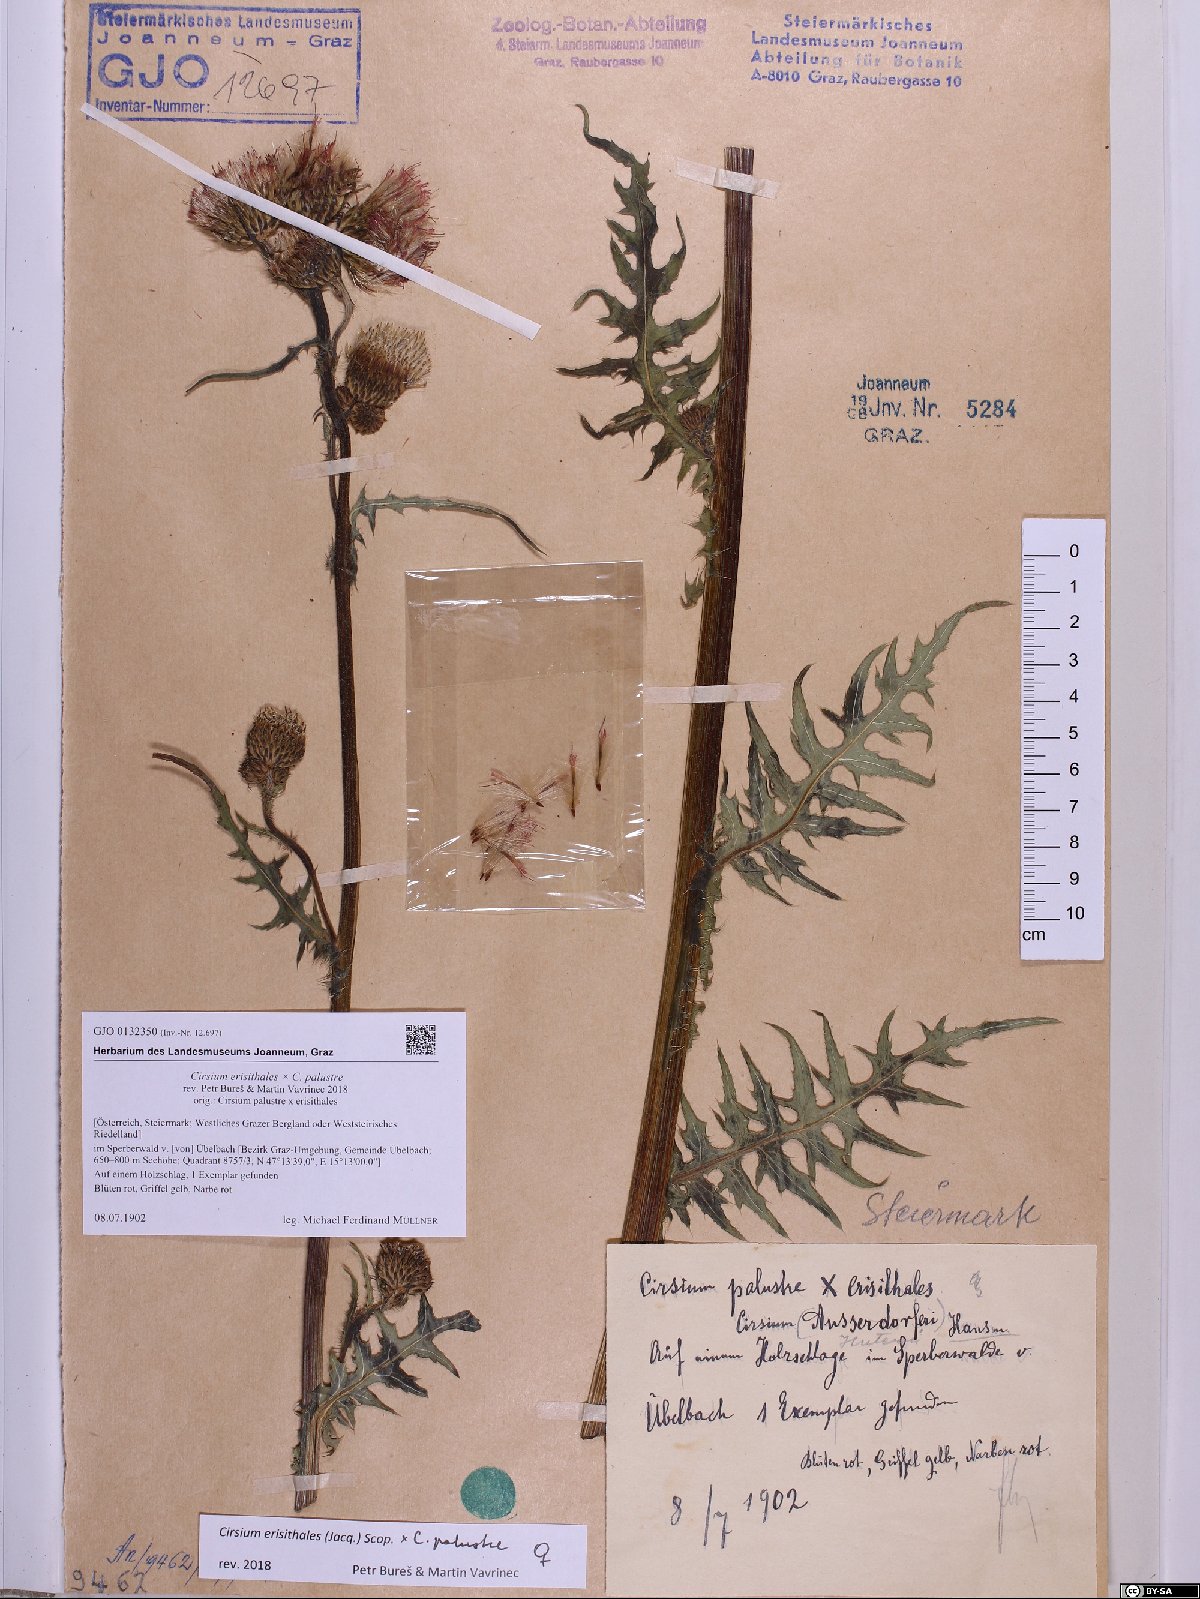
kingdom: Plantae
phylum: Tracheophyta
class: Magnoliopsida
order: Asterales
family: Asteraceae
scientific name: Asteraceae
